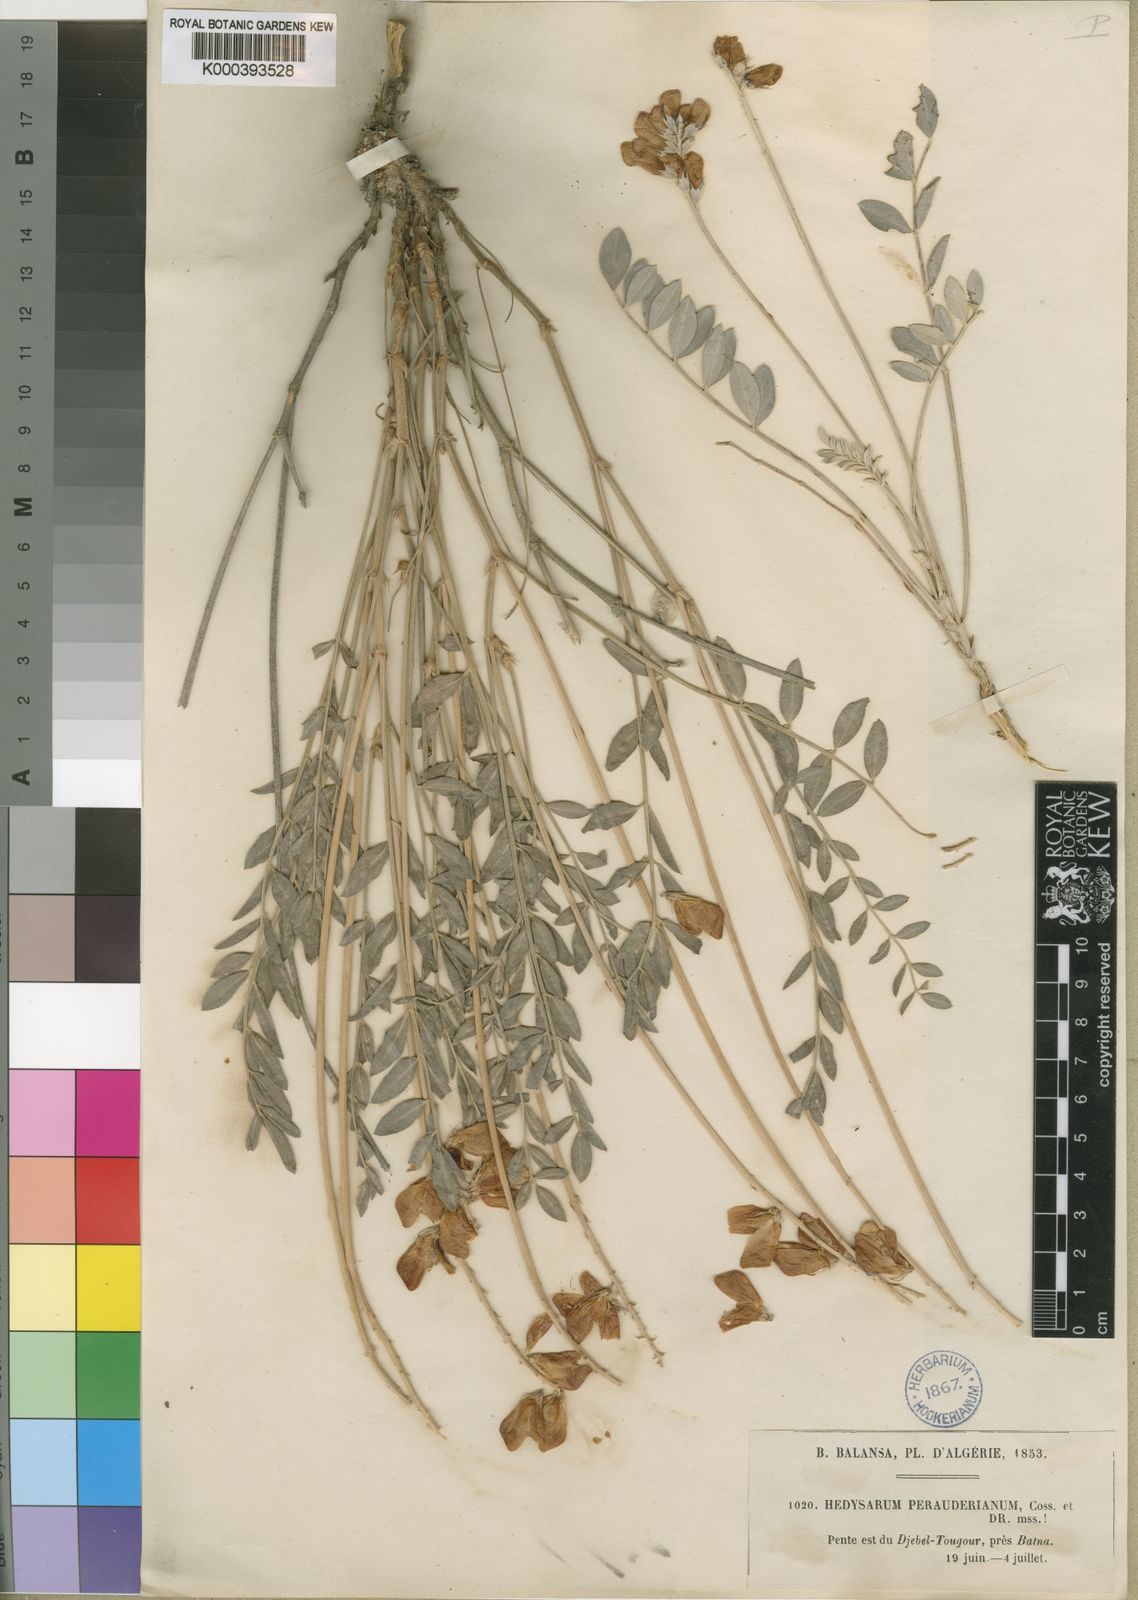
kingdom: Plantae
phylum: Tracheophyta
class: Magnoliopsida
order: Fabales
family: Fabaceae
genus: Hedysarum
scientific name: Hedysarum perrauderianum
